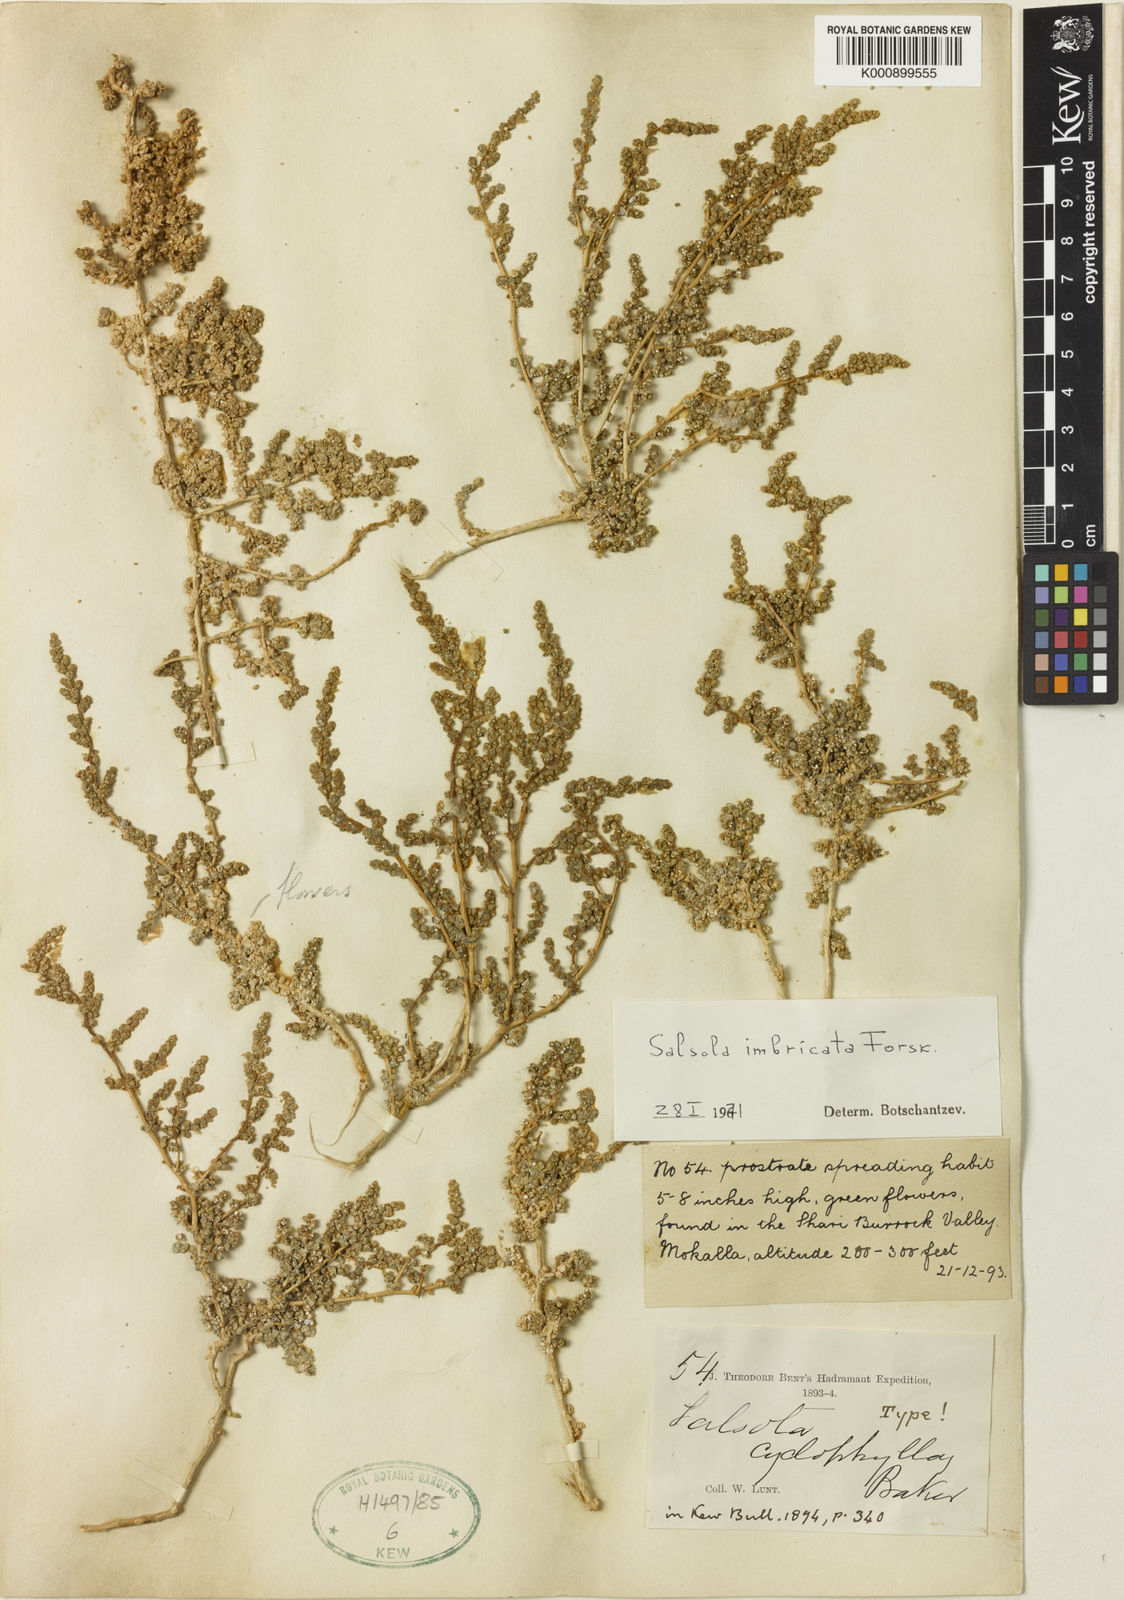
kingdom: Plantae
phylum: Tracheophyta
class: Magnoliopsida
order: Caryophyllales
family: Amaranthaceae
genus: Caroxylon
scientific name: Caroxylon cyclophyllum
